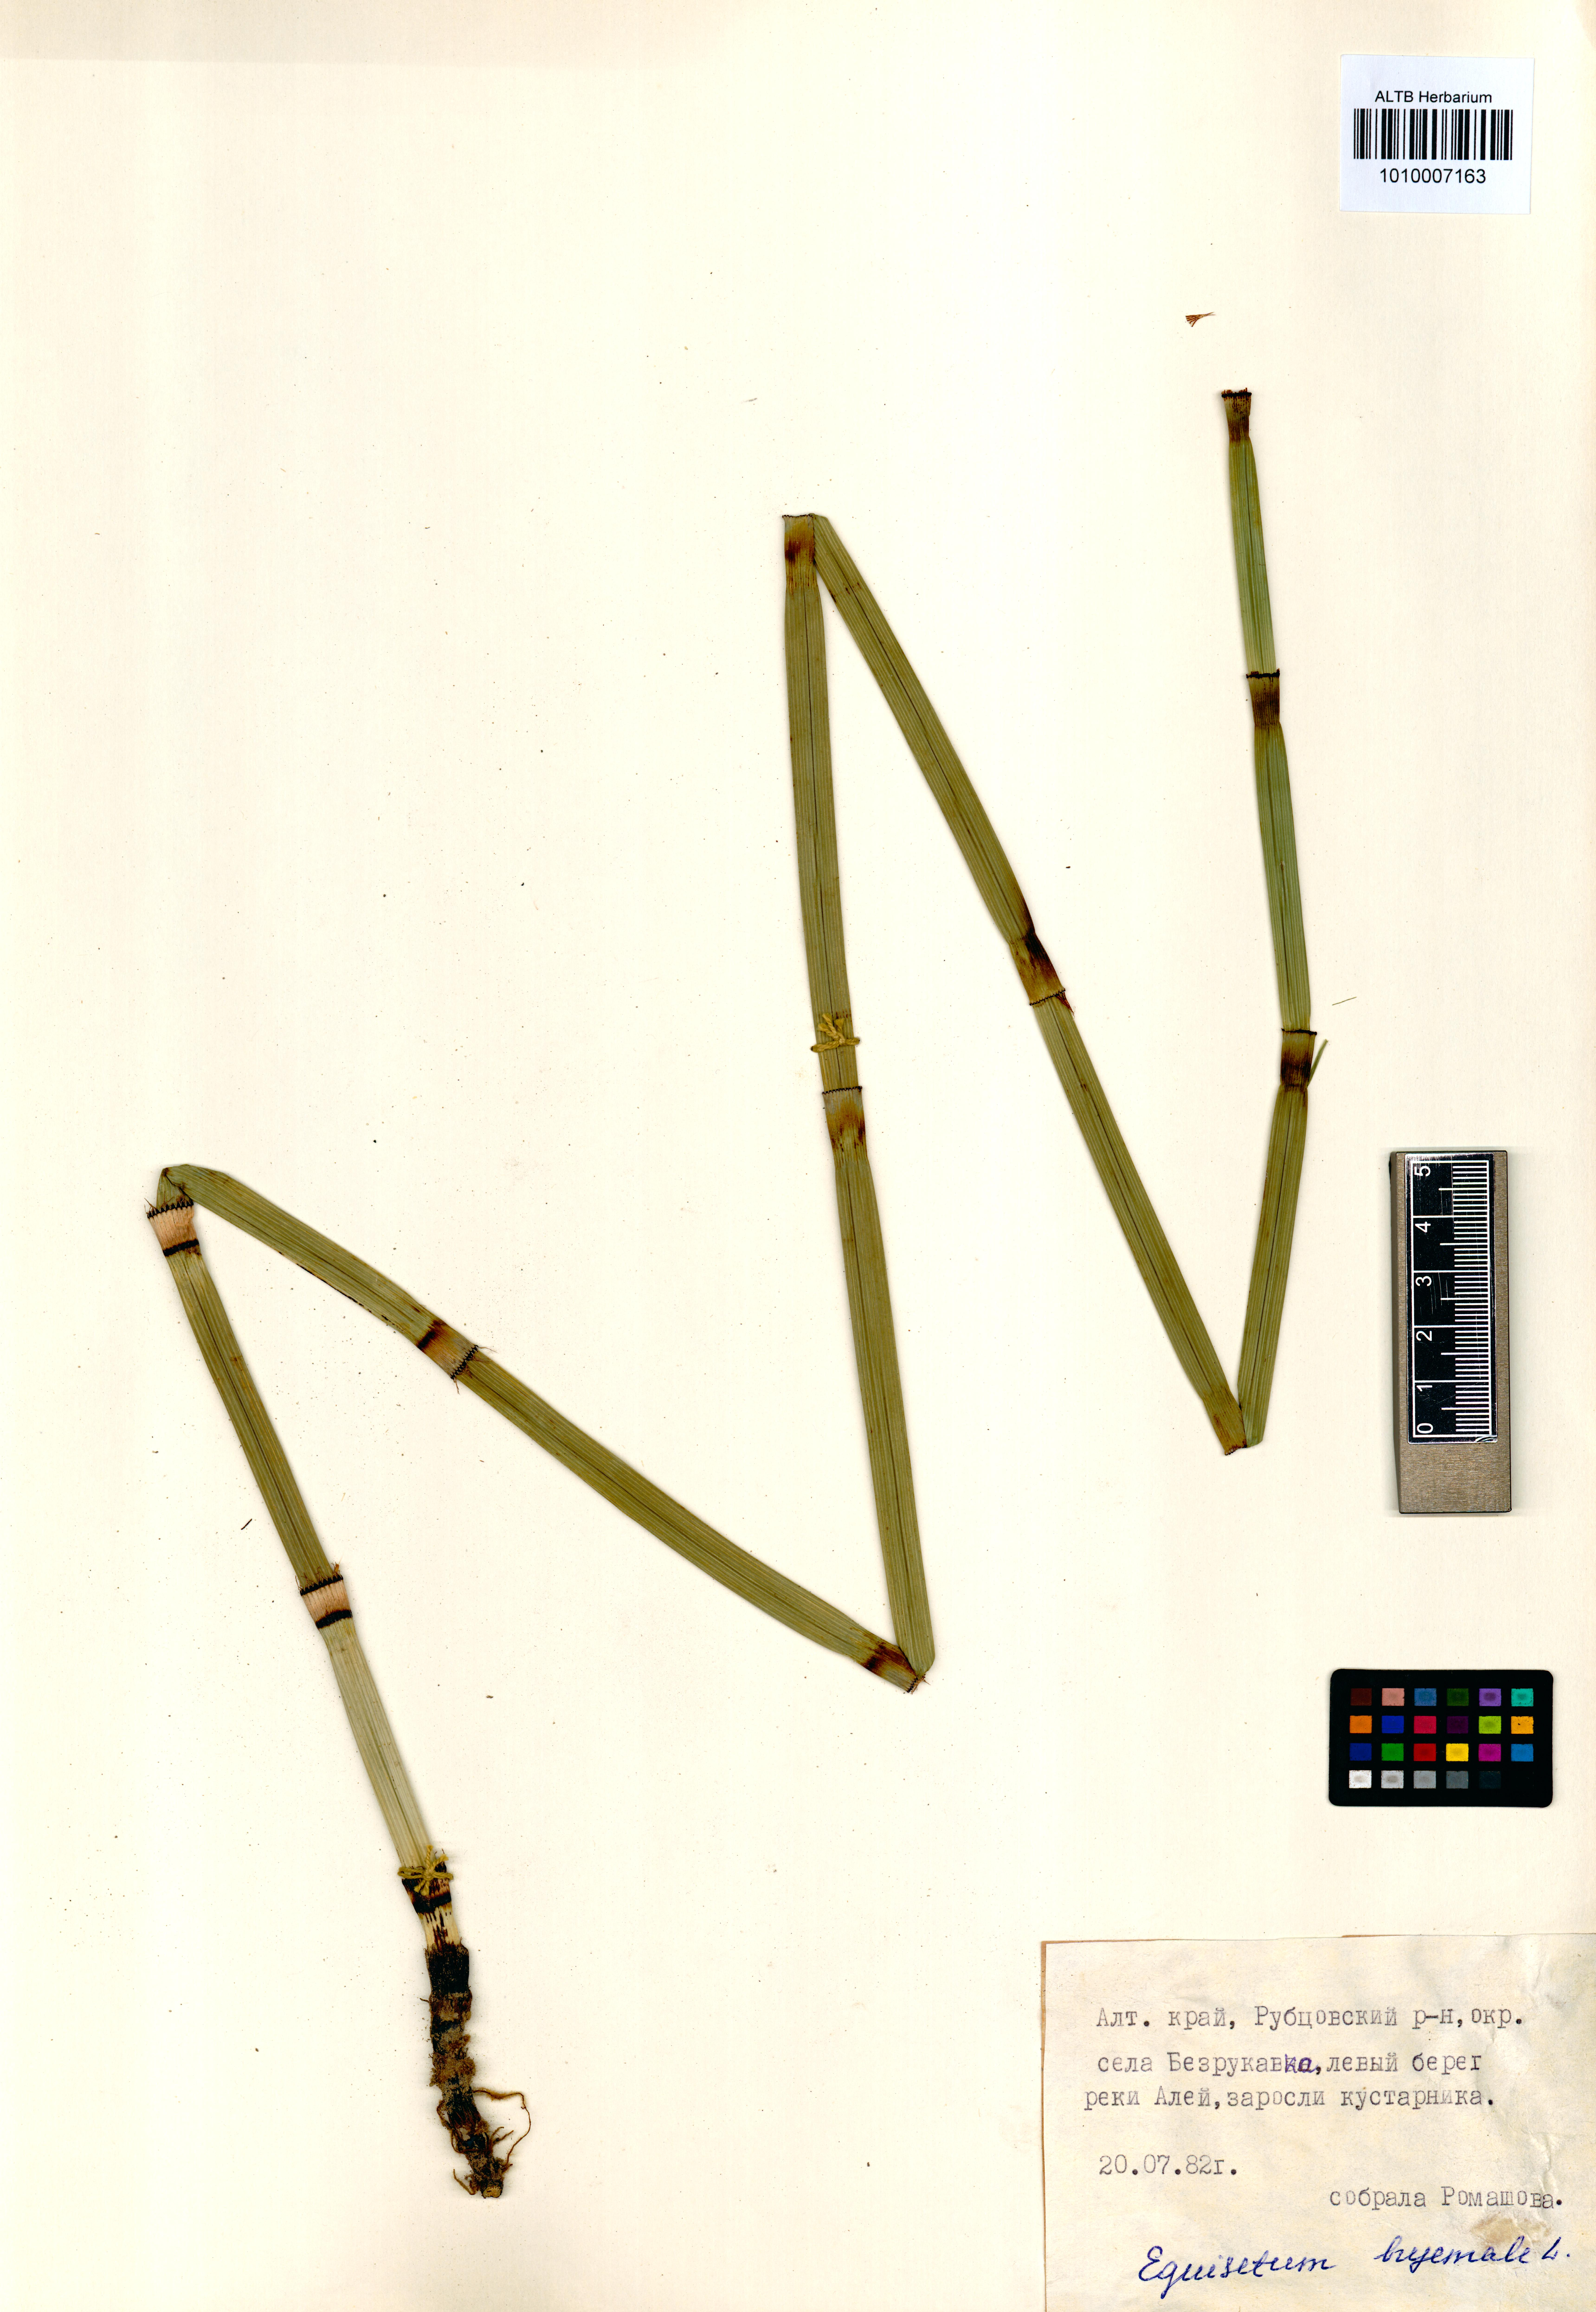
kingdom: Plantae
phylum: Tracheophyta
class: Polypodiopsida
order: Equisetales
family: Equisetaceae
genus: Equisetum
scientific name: Equisetum hyemale
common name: Rough horsetail
